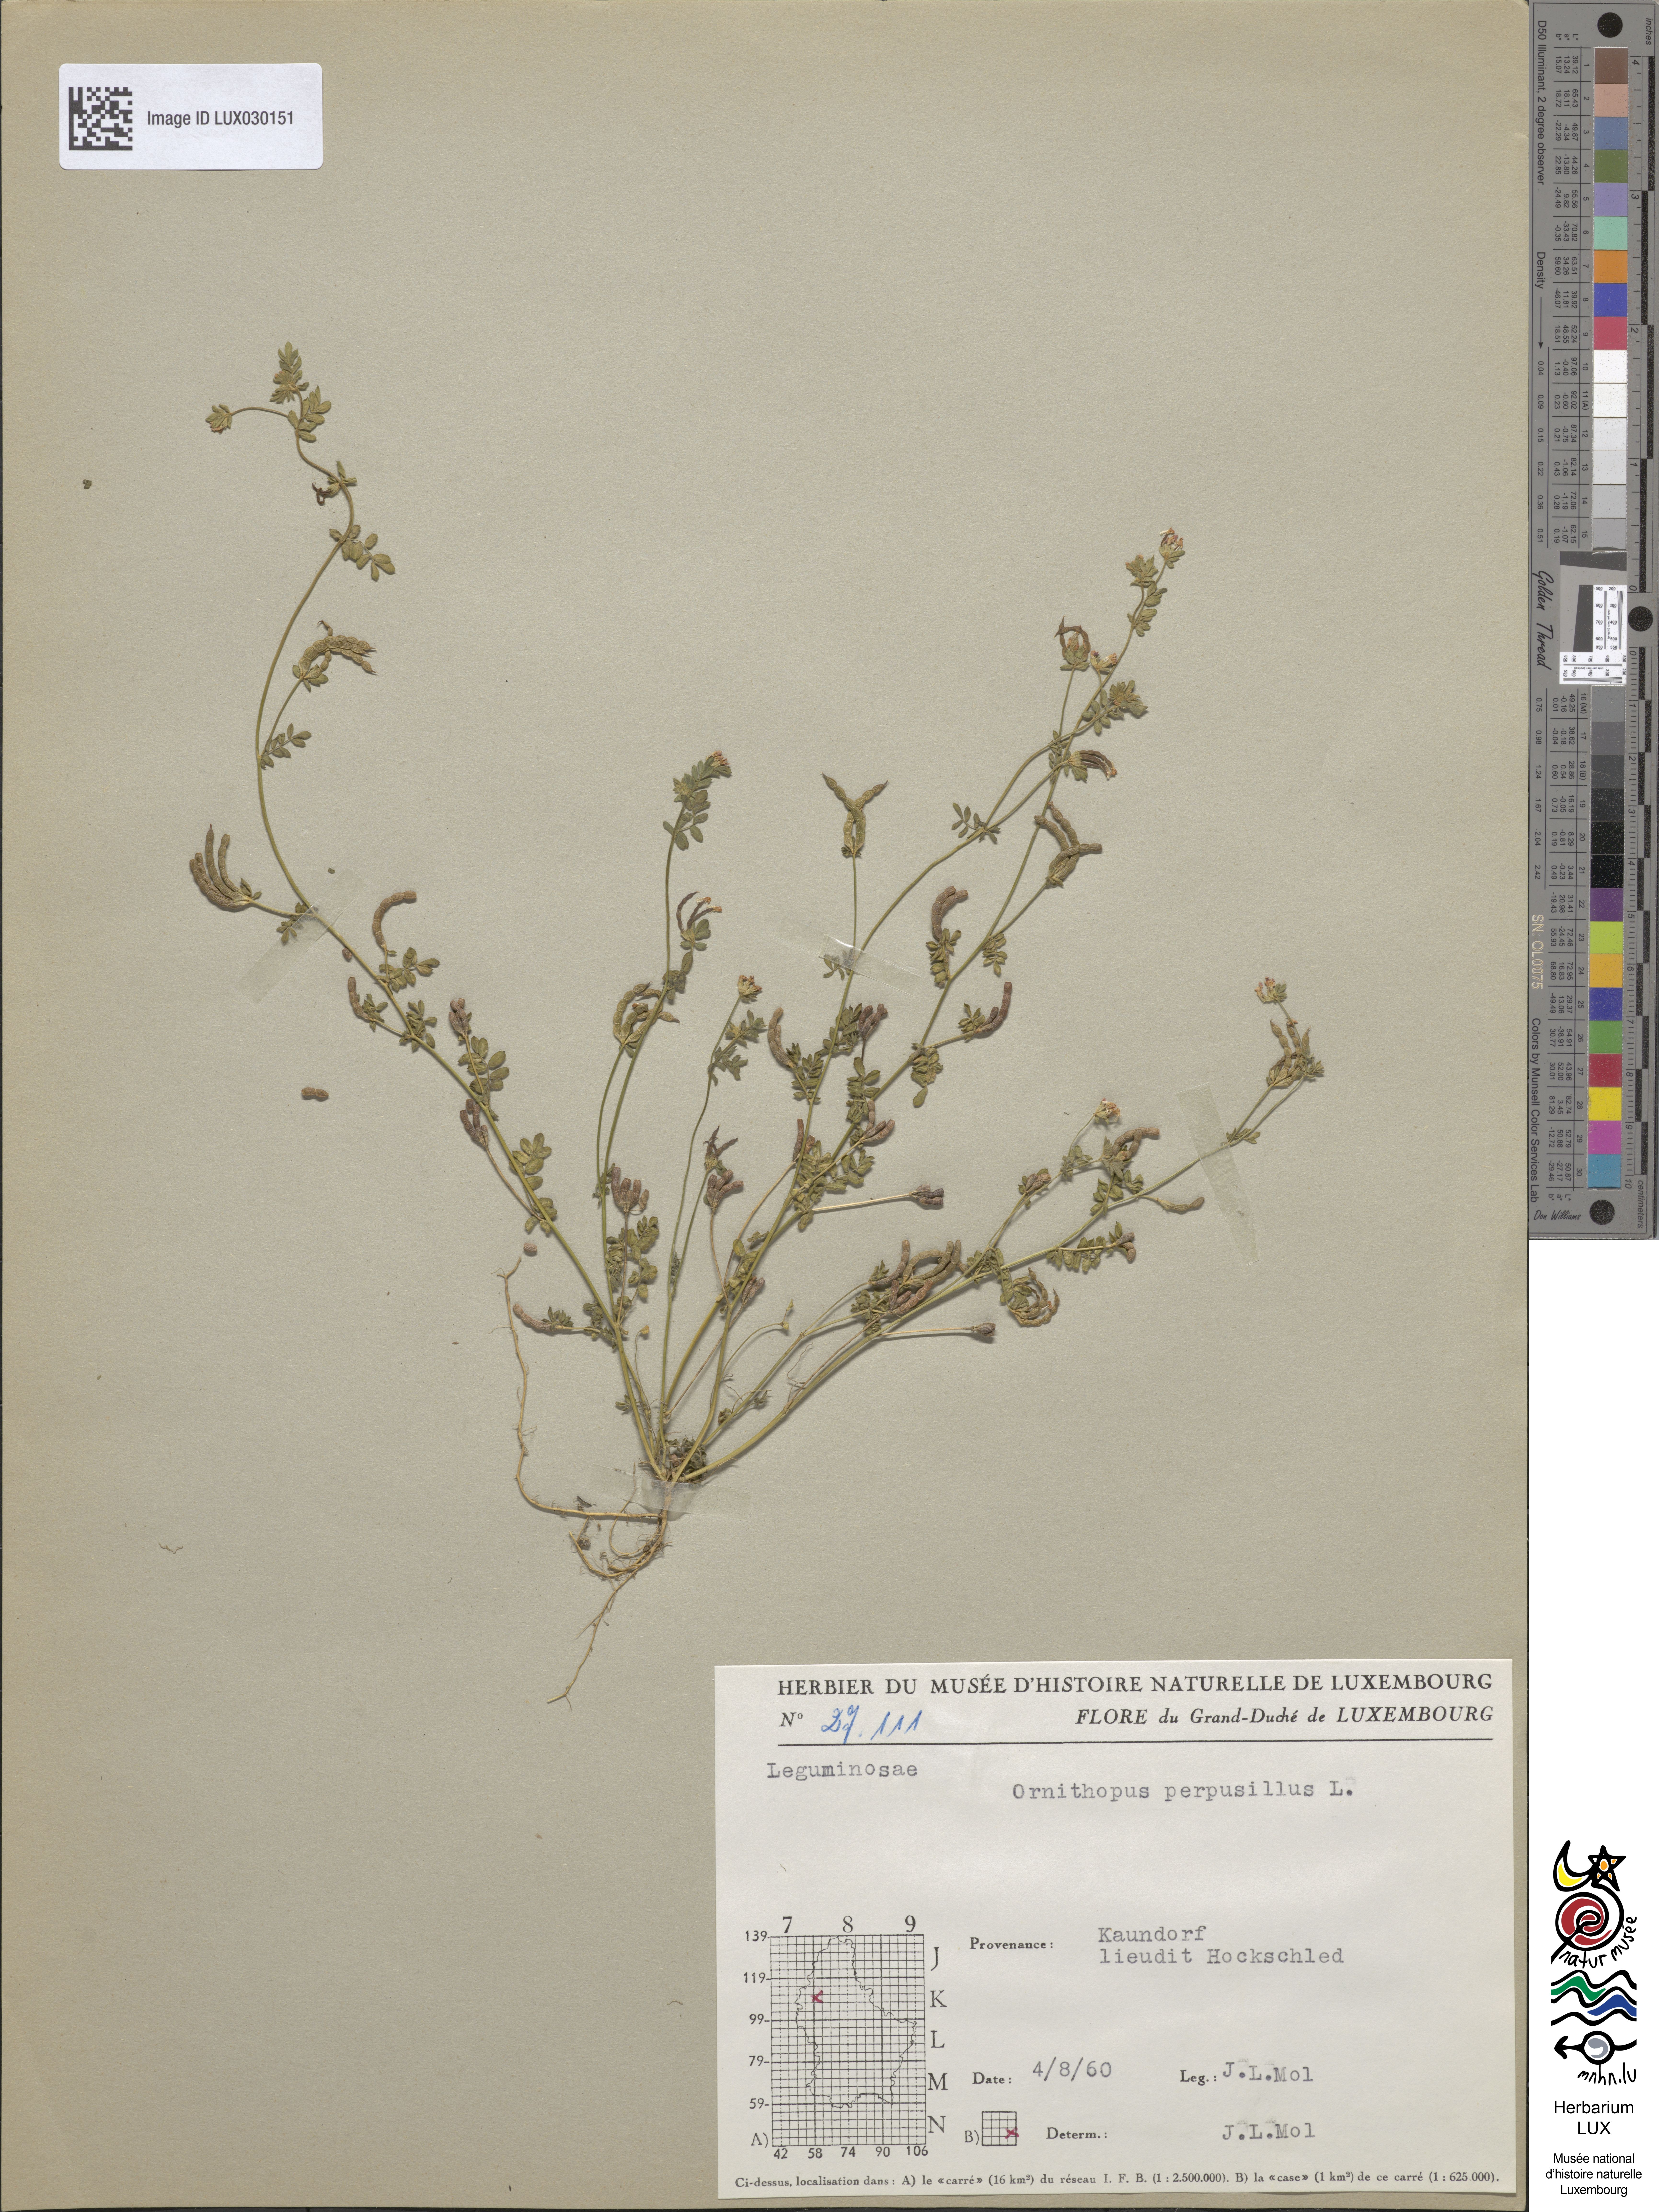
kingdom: Plantae
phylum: Tracheophyta
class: Magnoliopsida
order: Fabales
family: Fabaceae
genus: Ornithopus
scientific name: Ornithopus perpusillus
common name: Bird's-foot
